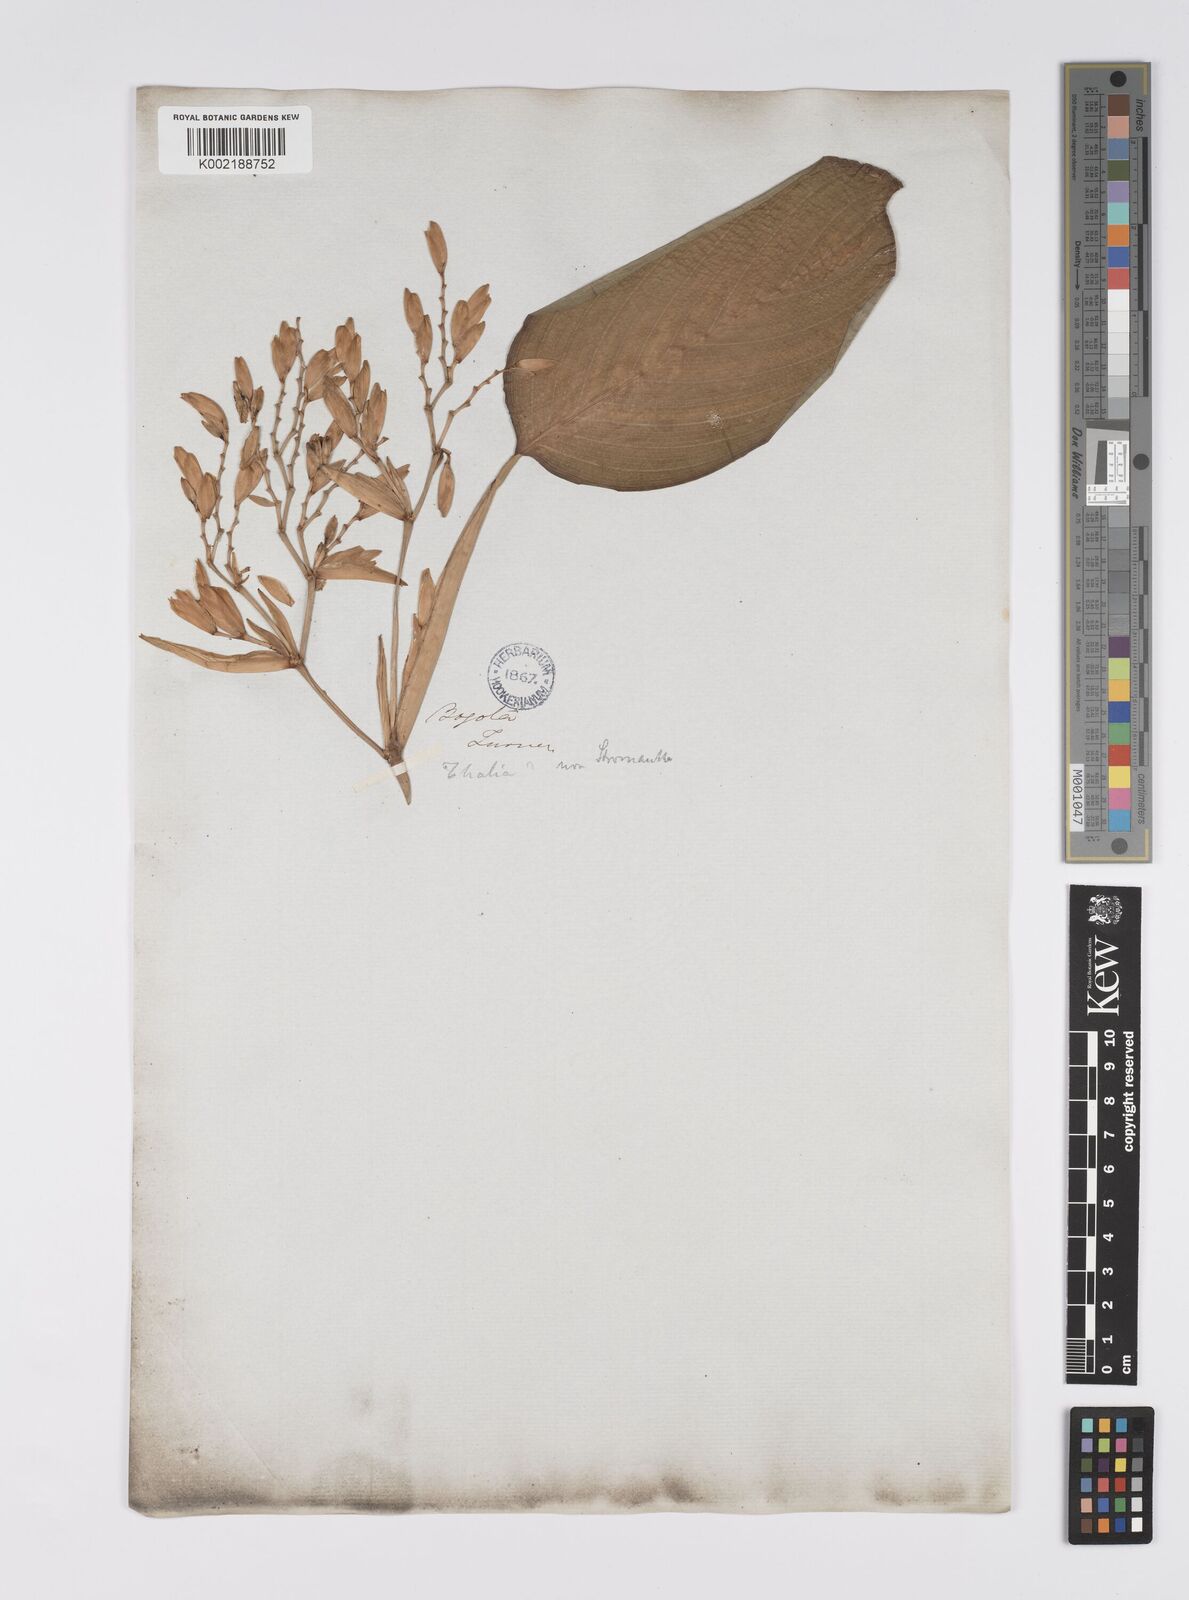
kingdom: Plantae
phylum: Tracheophyta
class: Liliopsida
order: Zingiberales
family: Marantaceae
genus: Stromanthe
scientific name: Stromanthe jacquinii
